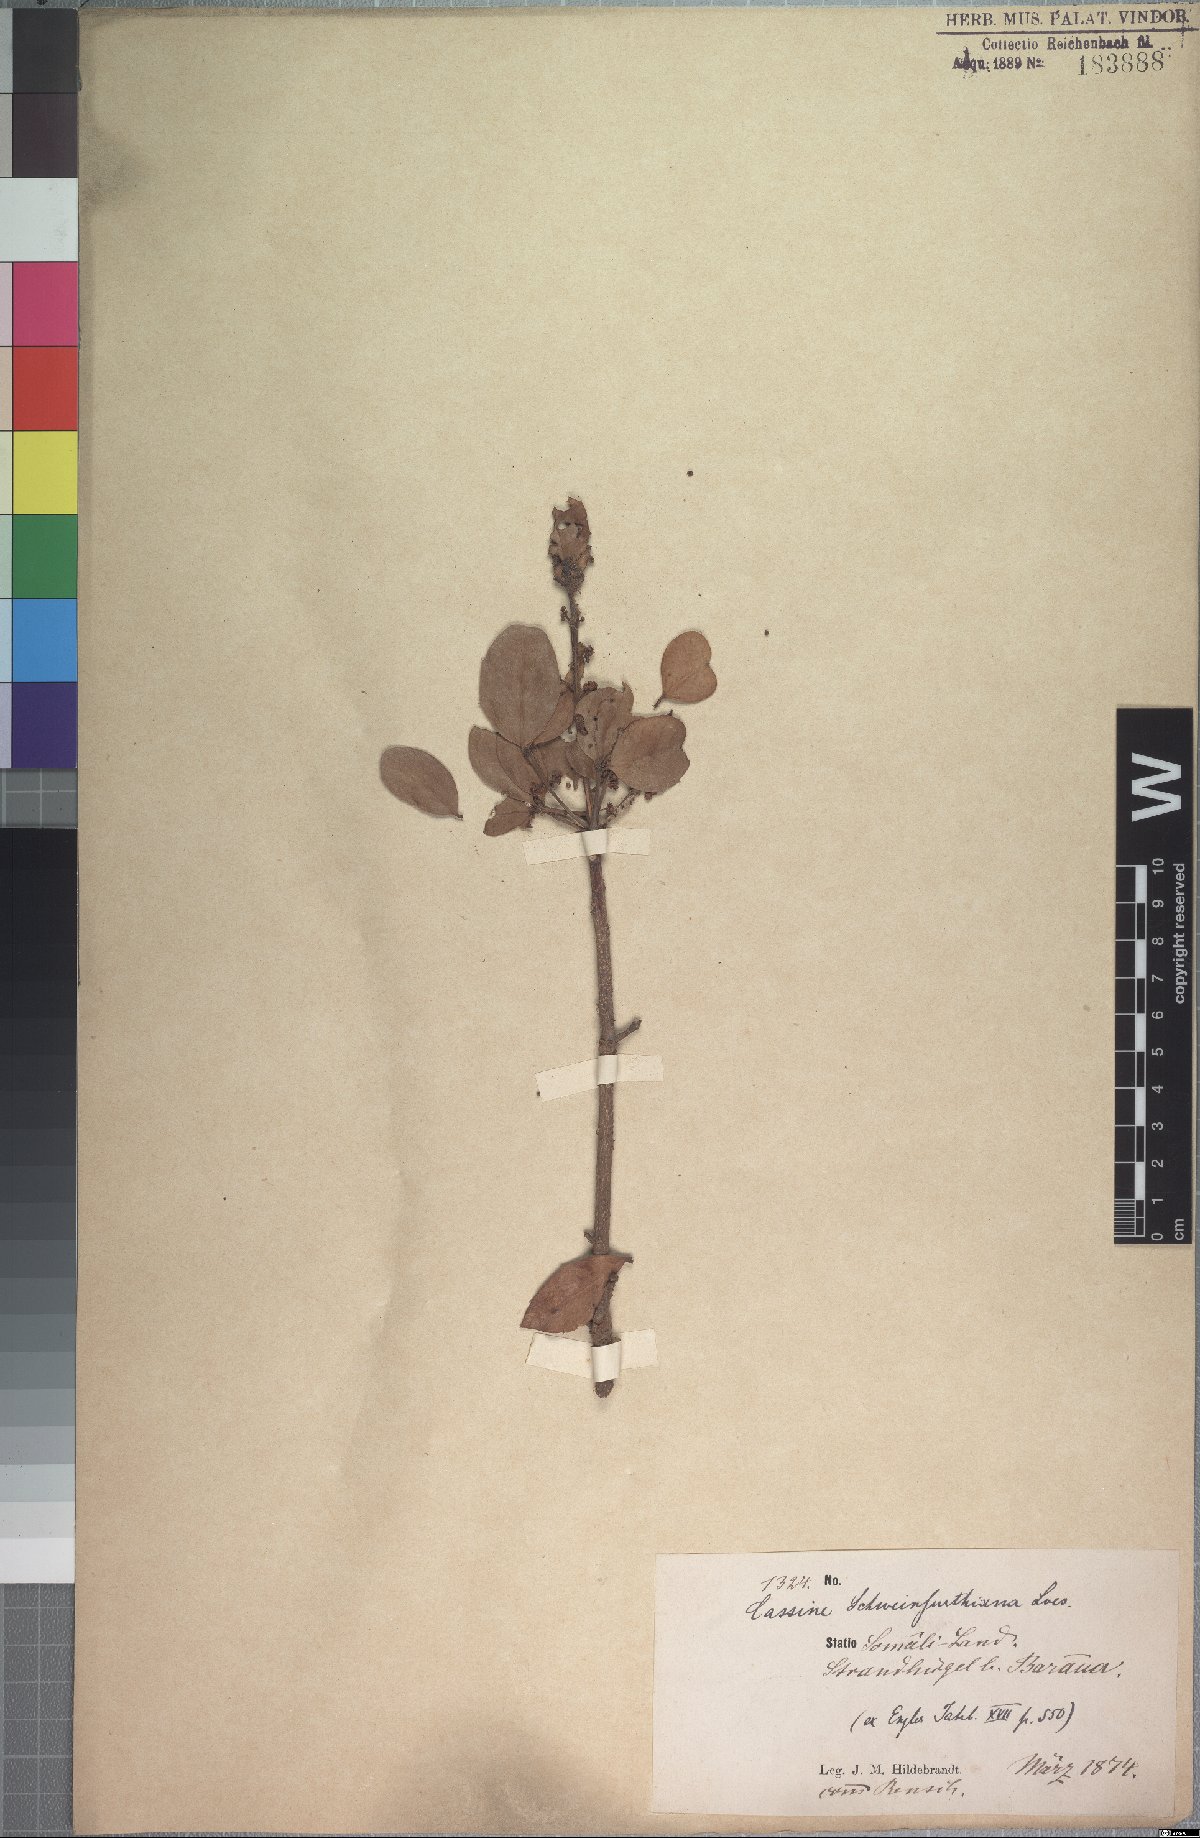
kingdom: Plantae
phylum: Tracheophyta
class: Magnoliopsida
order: Celastrales
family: Celastraceae
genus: Elaeodendron
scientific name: Elaeodendron schweinfurthianum
